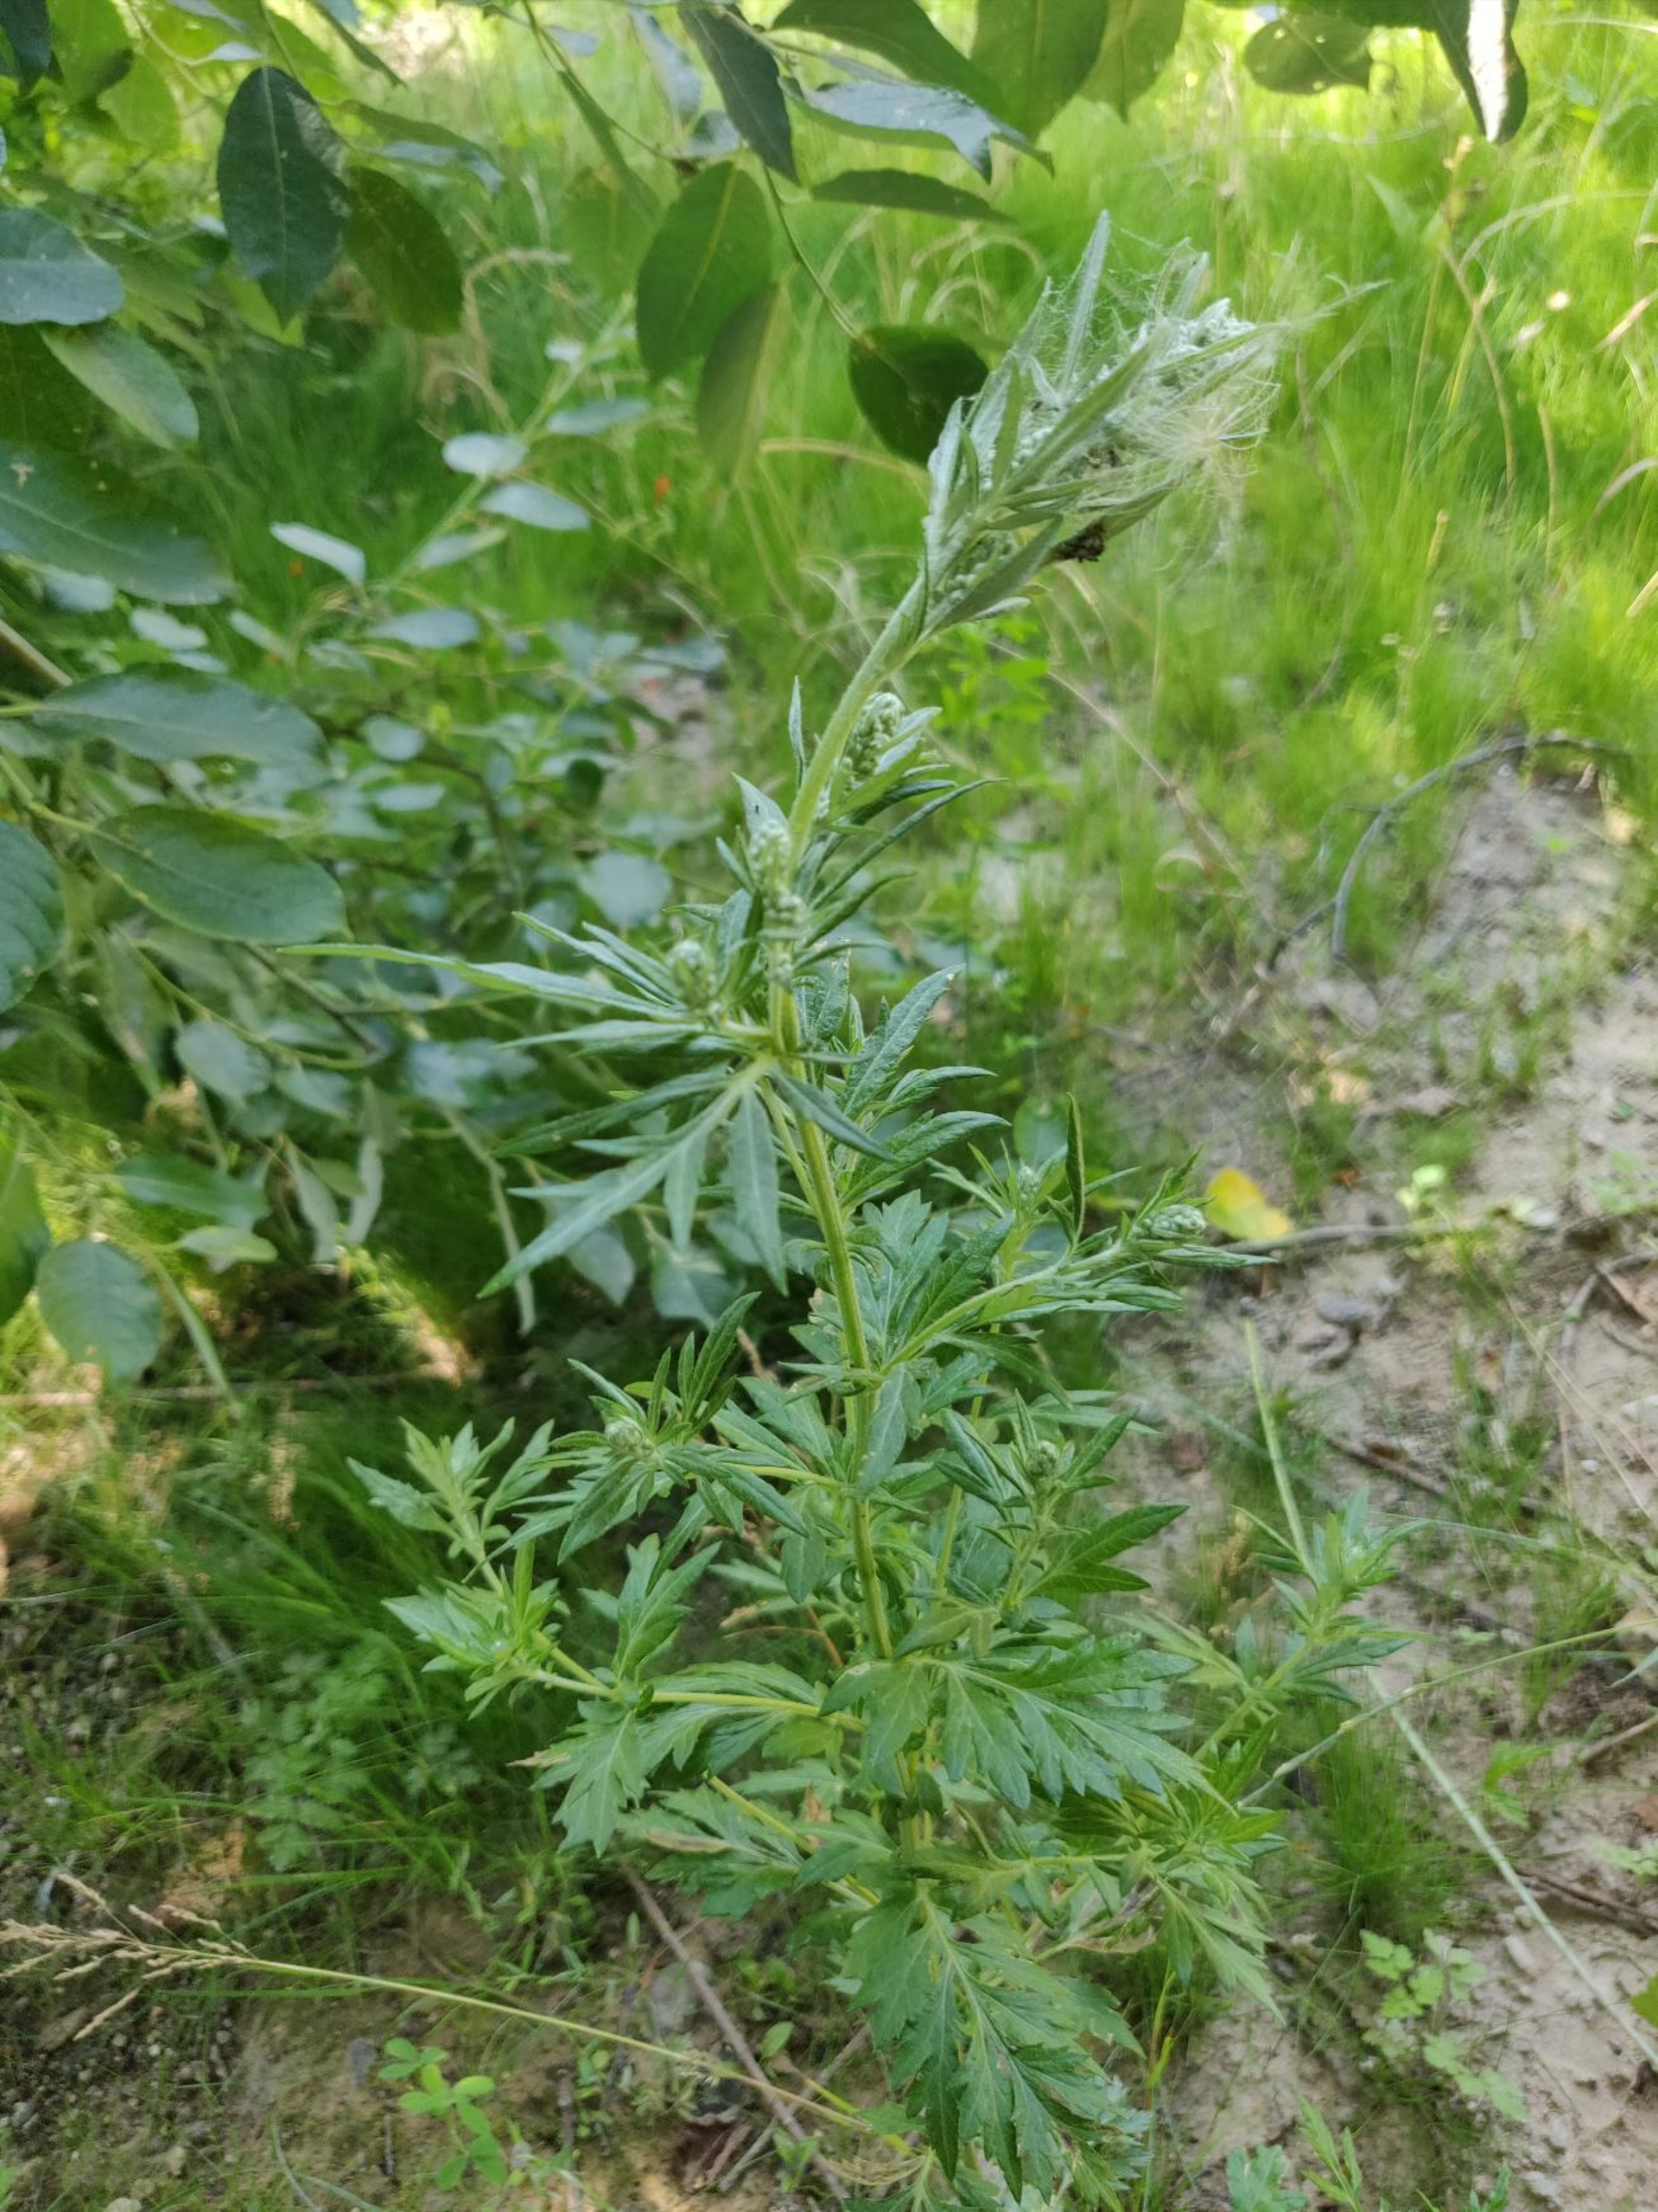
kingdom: Plantae
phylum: Tracheophyta
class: Magnoliopsida
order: Asterales
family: Asteraceae
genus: Artemisia
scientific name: Artemisia vulgaris
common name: Grå-bynke
